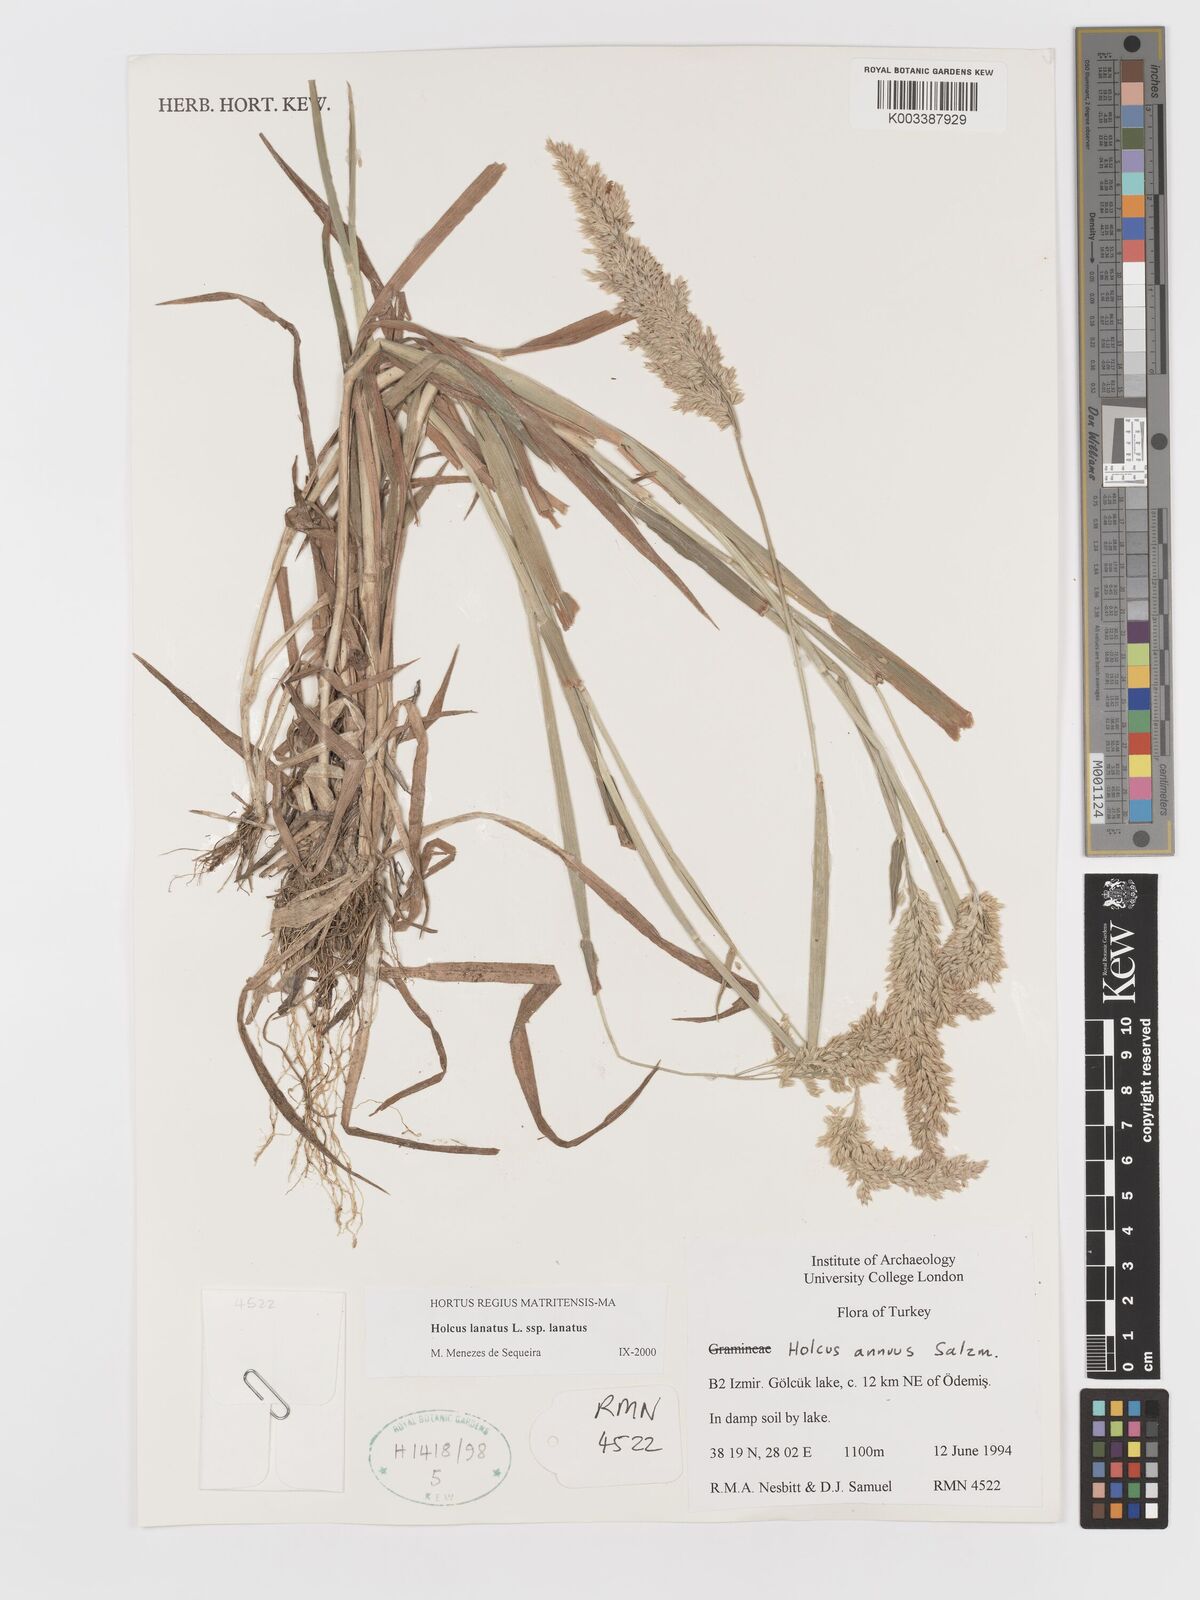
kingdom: Plantae
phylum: Tracheophyta
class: Liliopsida
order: Poales
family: Poaceae
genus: Holcus
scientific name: Holcus lanatus
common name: Yorkshire-fog
